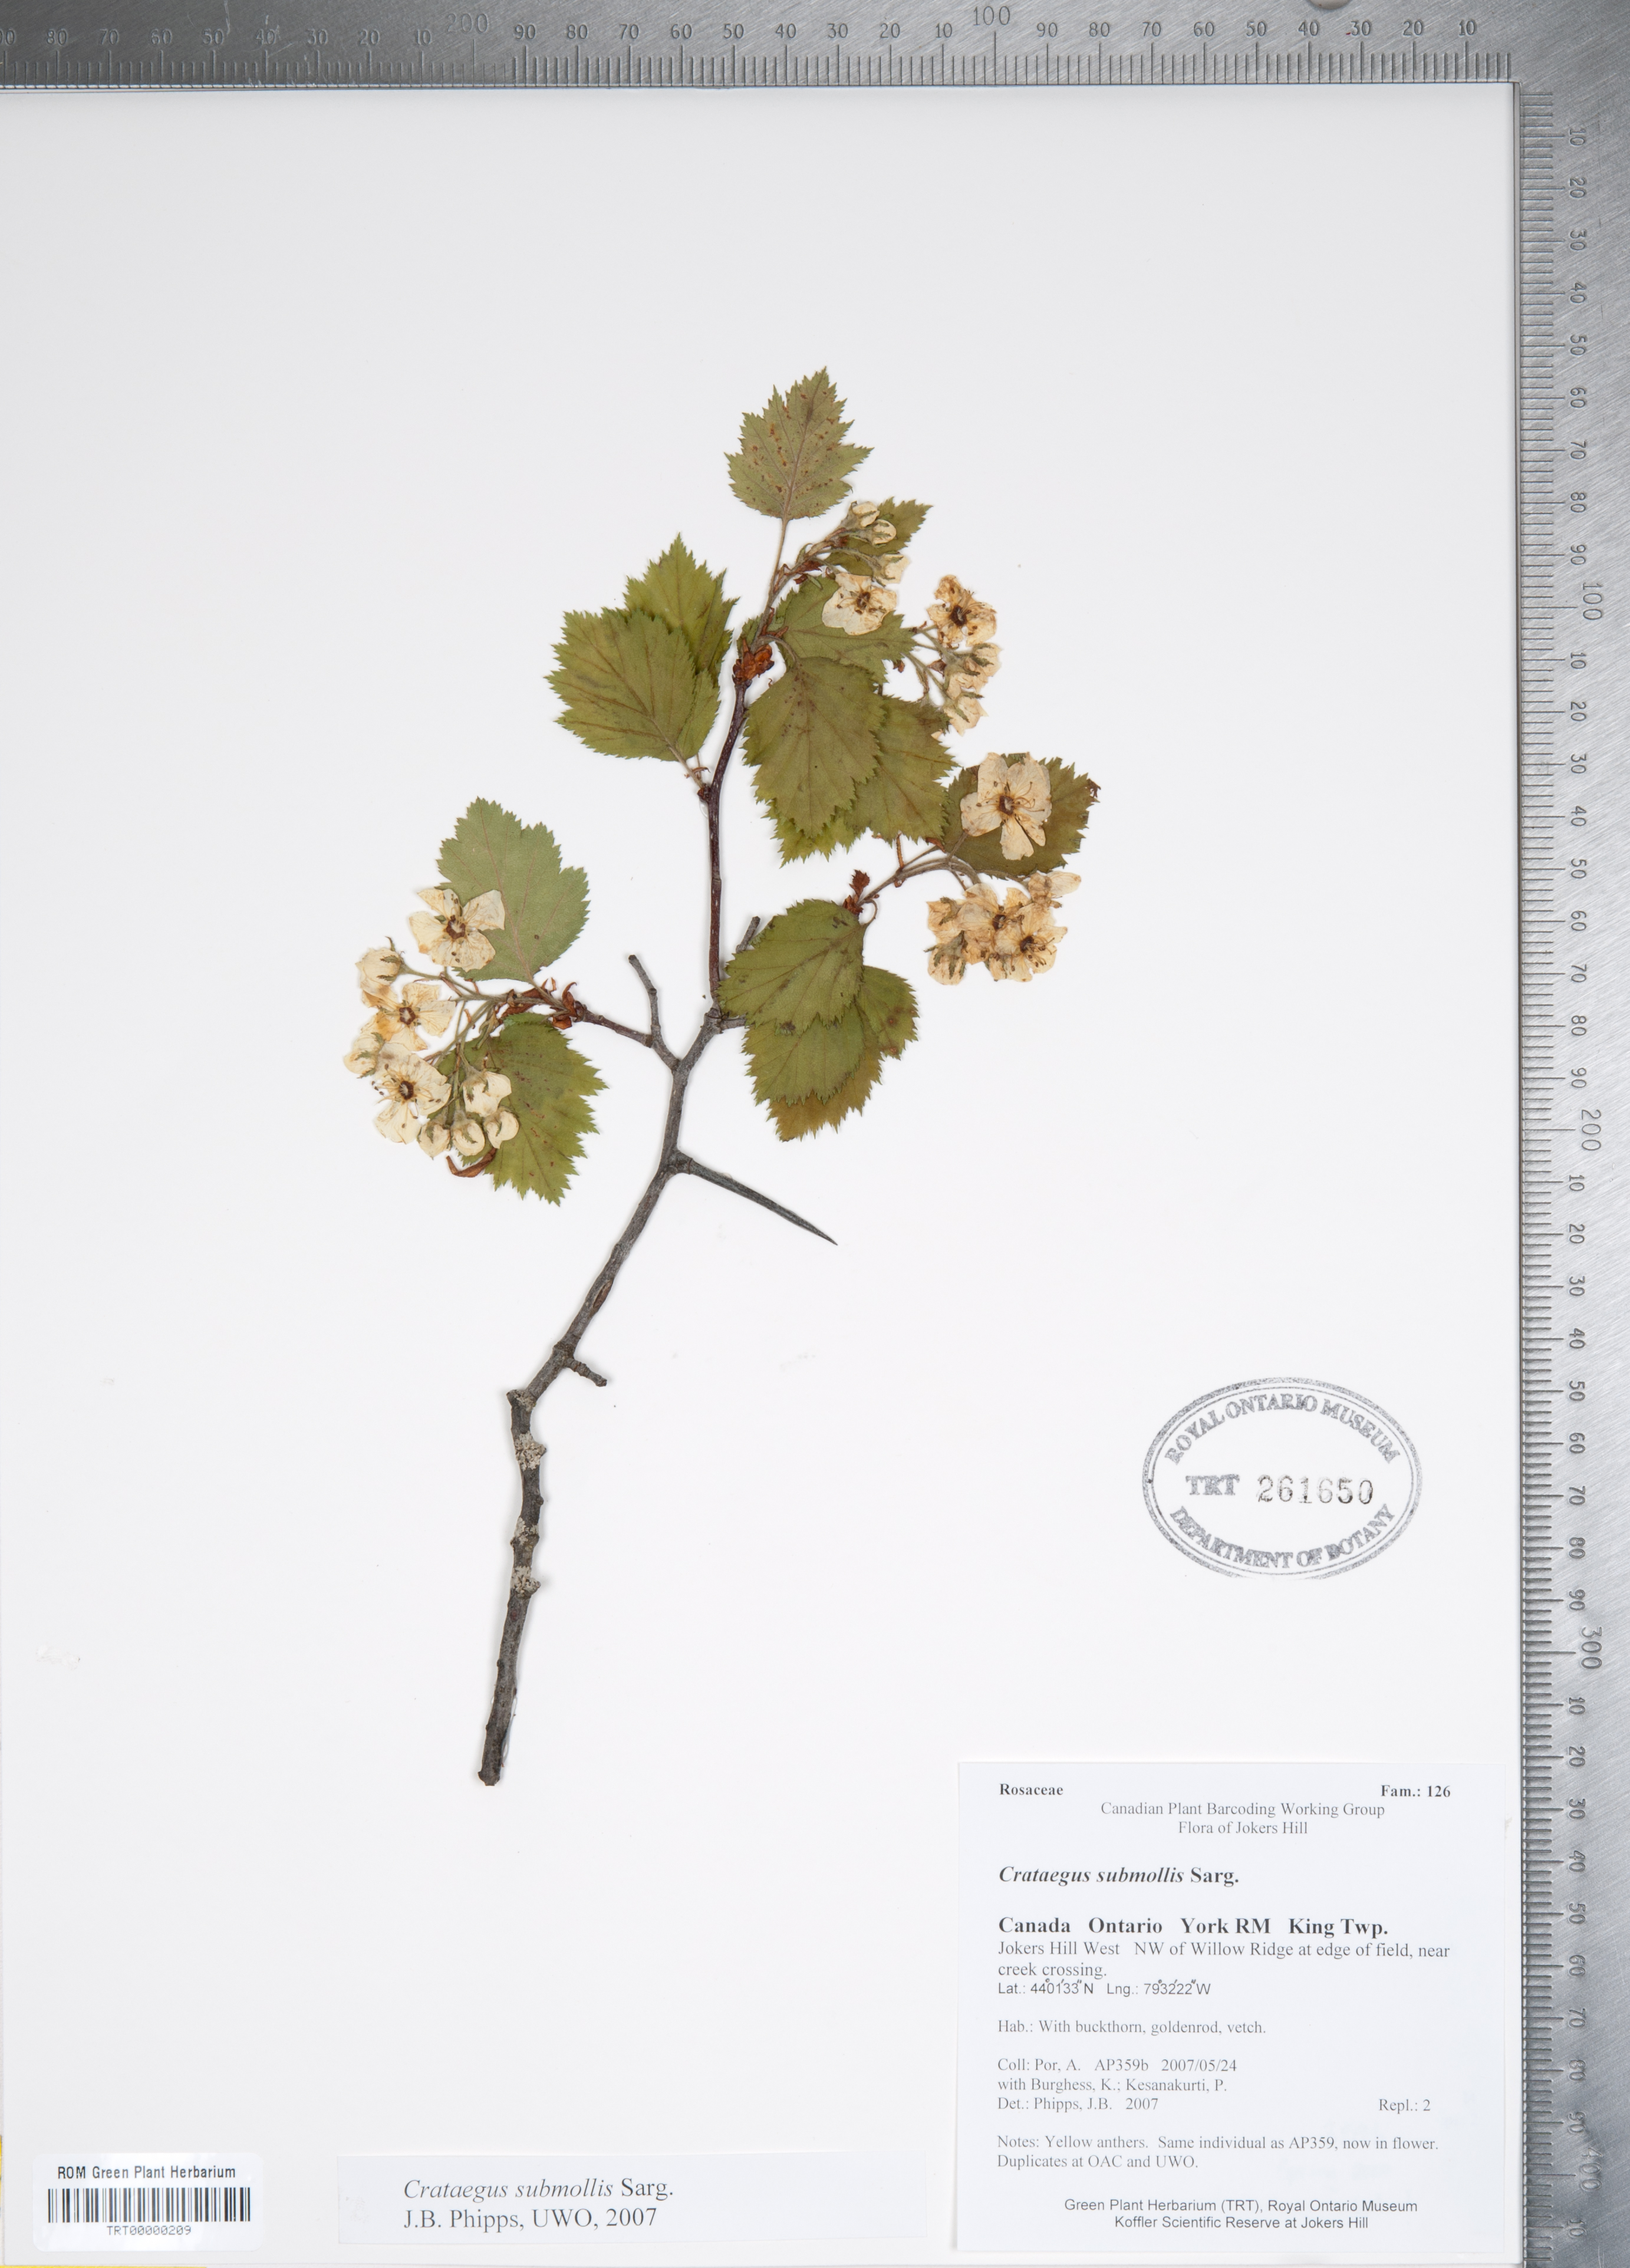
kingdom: Plantae
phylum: Tracheophyta
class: Magnoliopsida
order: Rosales
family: Rosaceae
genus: Crataegus
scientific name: Crataegus submollis
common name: Hairy cockspurthorn
